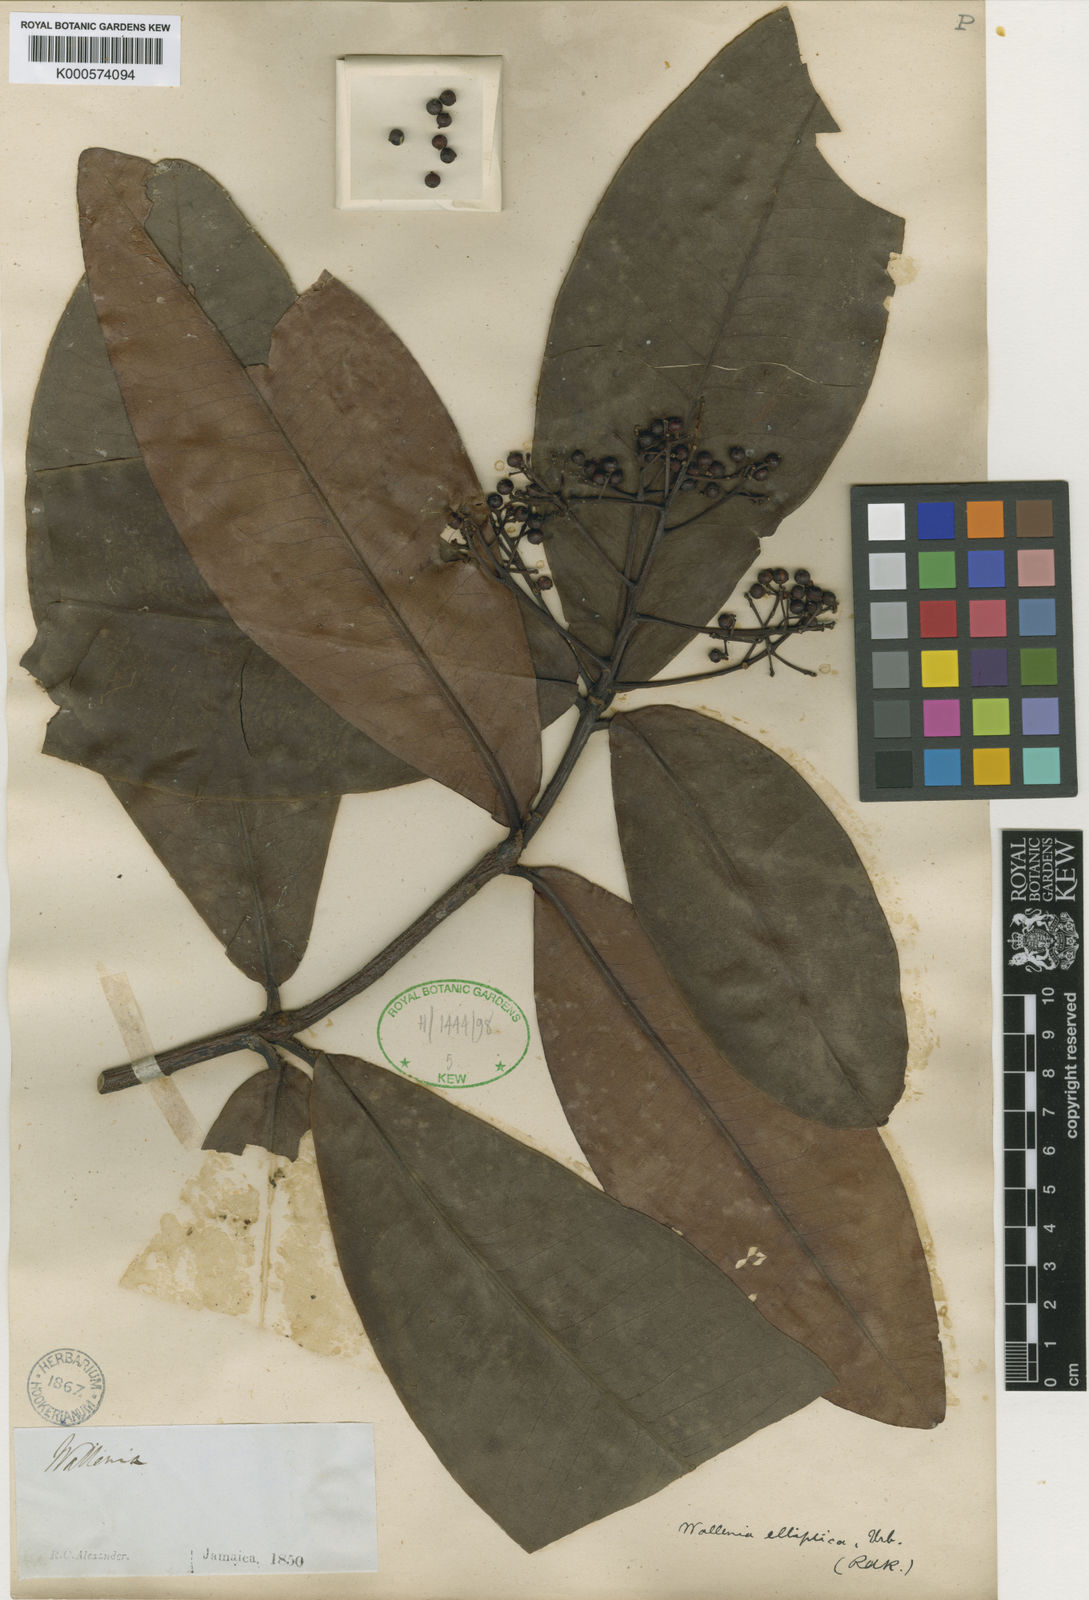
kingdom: Plantae
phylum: Tracheophyta
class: Magnoliopsida
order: Ericales
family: Primulaceae
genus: Wallenia
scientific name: Wallenia elliptica
